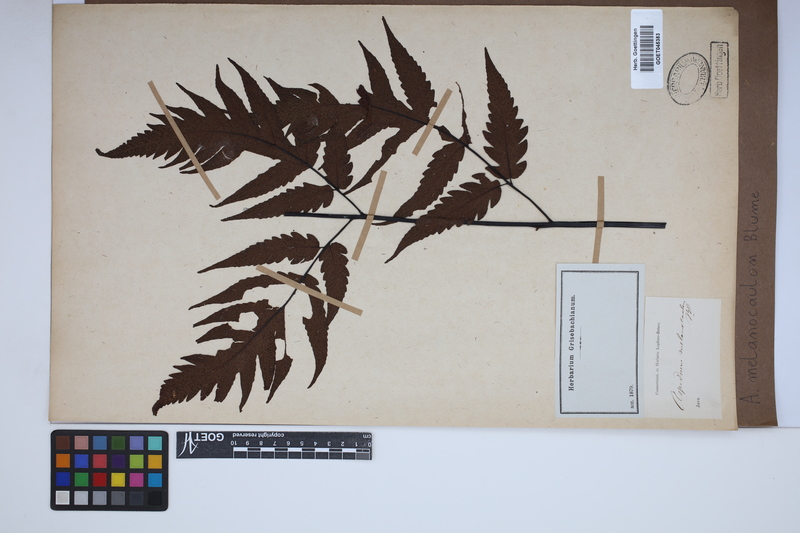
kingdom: Plantae
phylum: Tracheophyta
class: Polypodiopsida
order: Polypodiales
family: Tectariaceae
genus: Tectaria
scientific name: Tectaria melanocaulos
